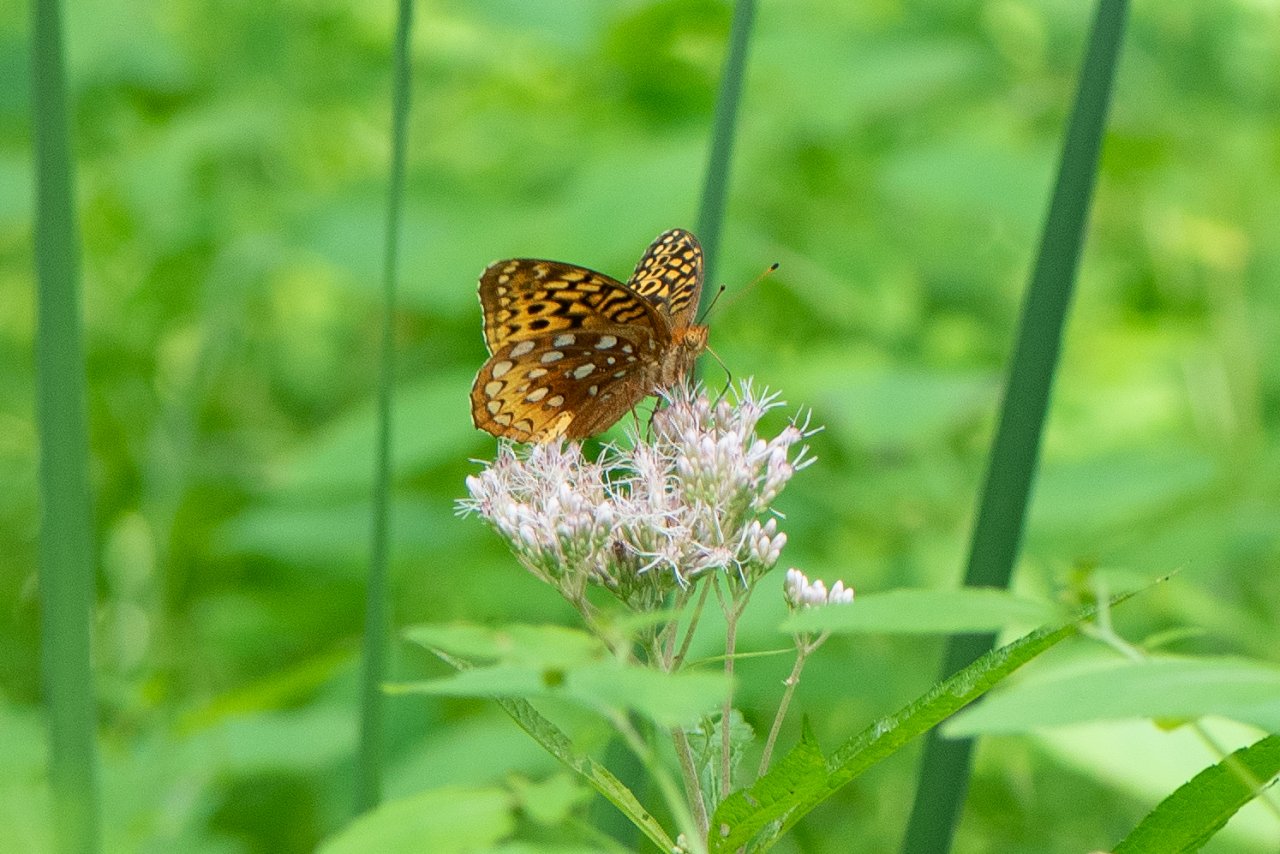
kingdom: Animalia
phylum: Arthropoda
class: Insecta
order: Lepidoptera
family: Nymphalidae
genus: Speyeria
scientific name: Speyeria cybele
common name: Great Spangled Fritillary
